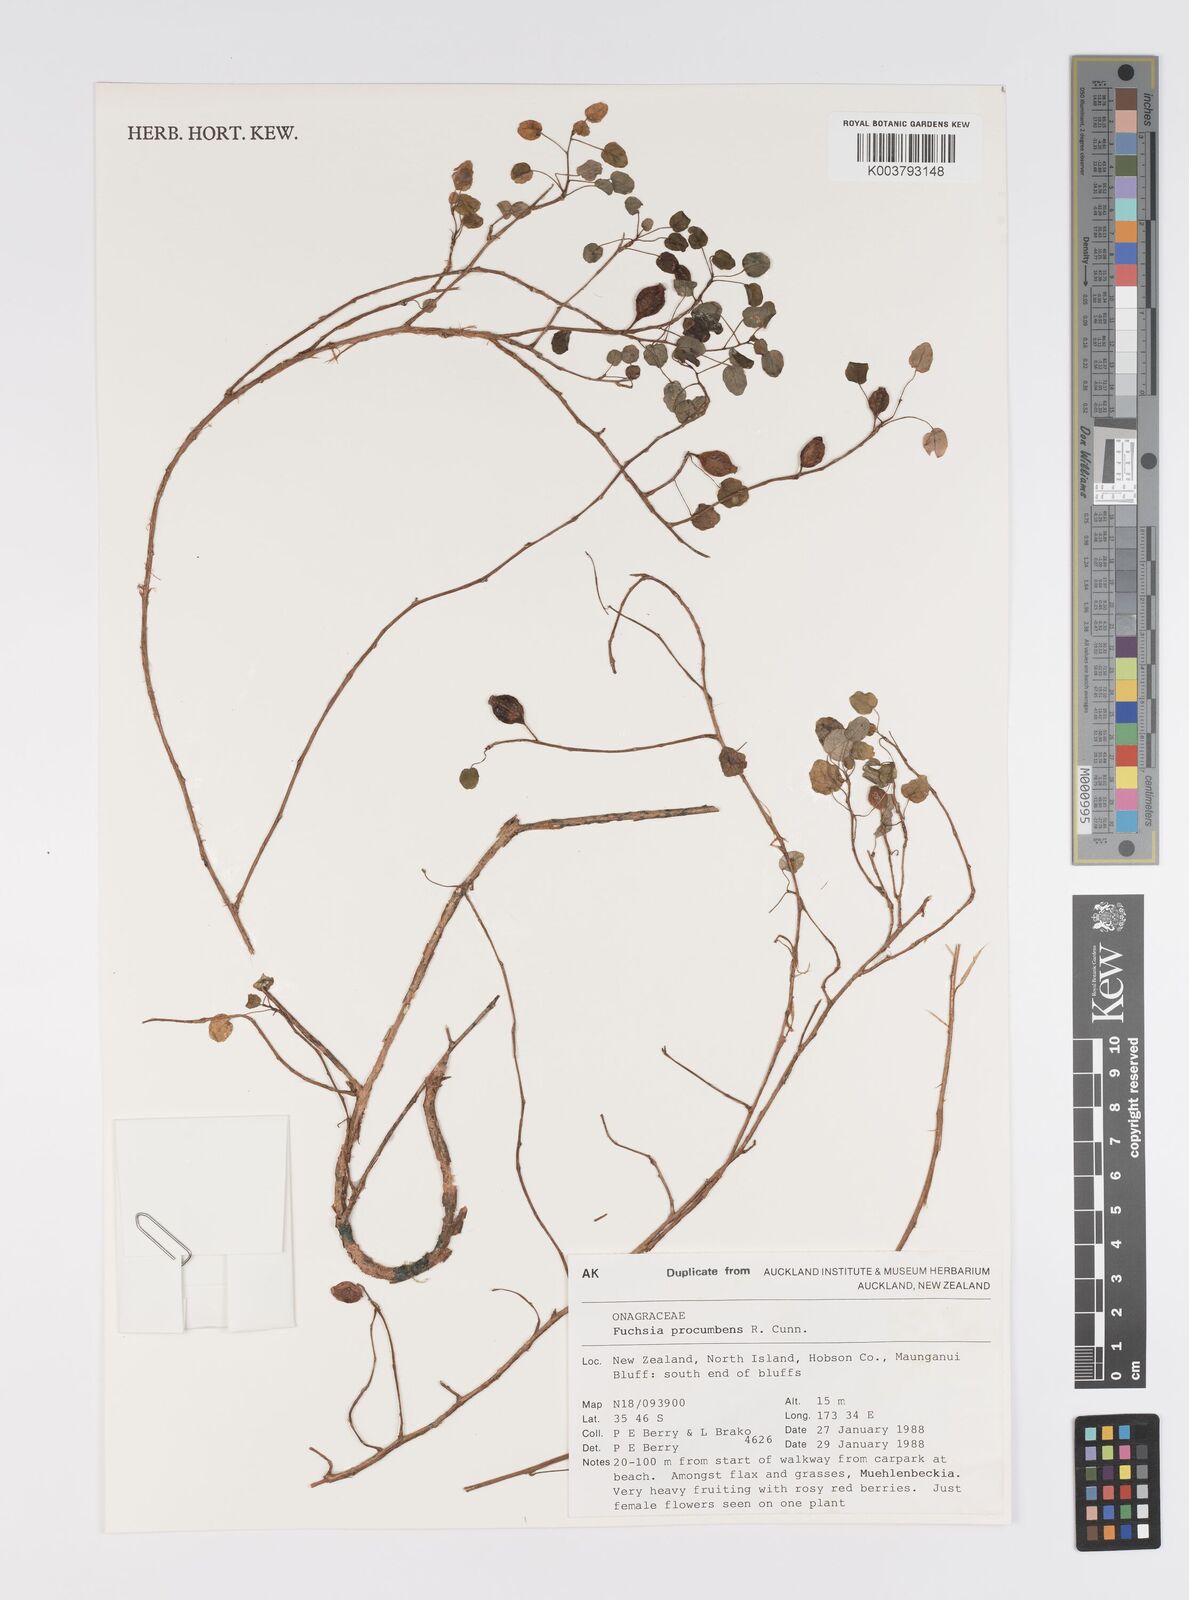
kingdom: Plantae
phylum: Tracheophyta
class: Magnoliopsida
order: Myrtales
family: Onagraceae
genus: Fuchsia
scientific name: Fuchsia procumbens
